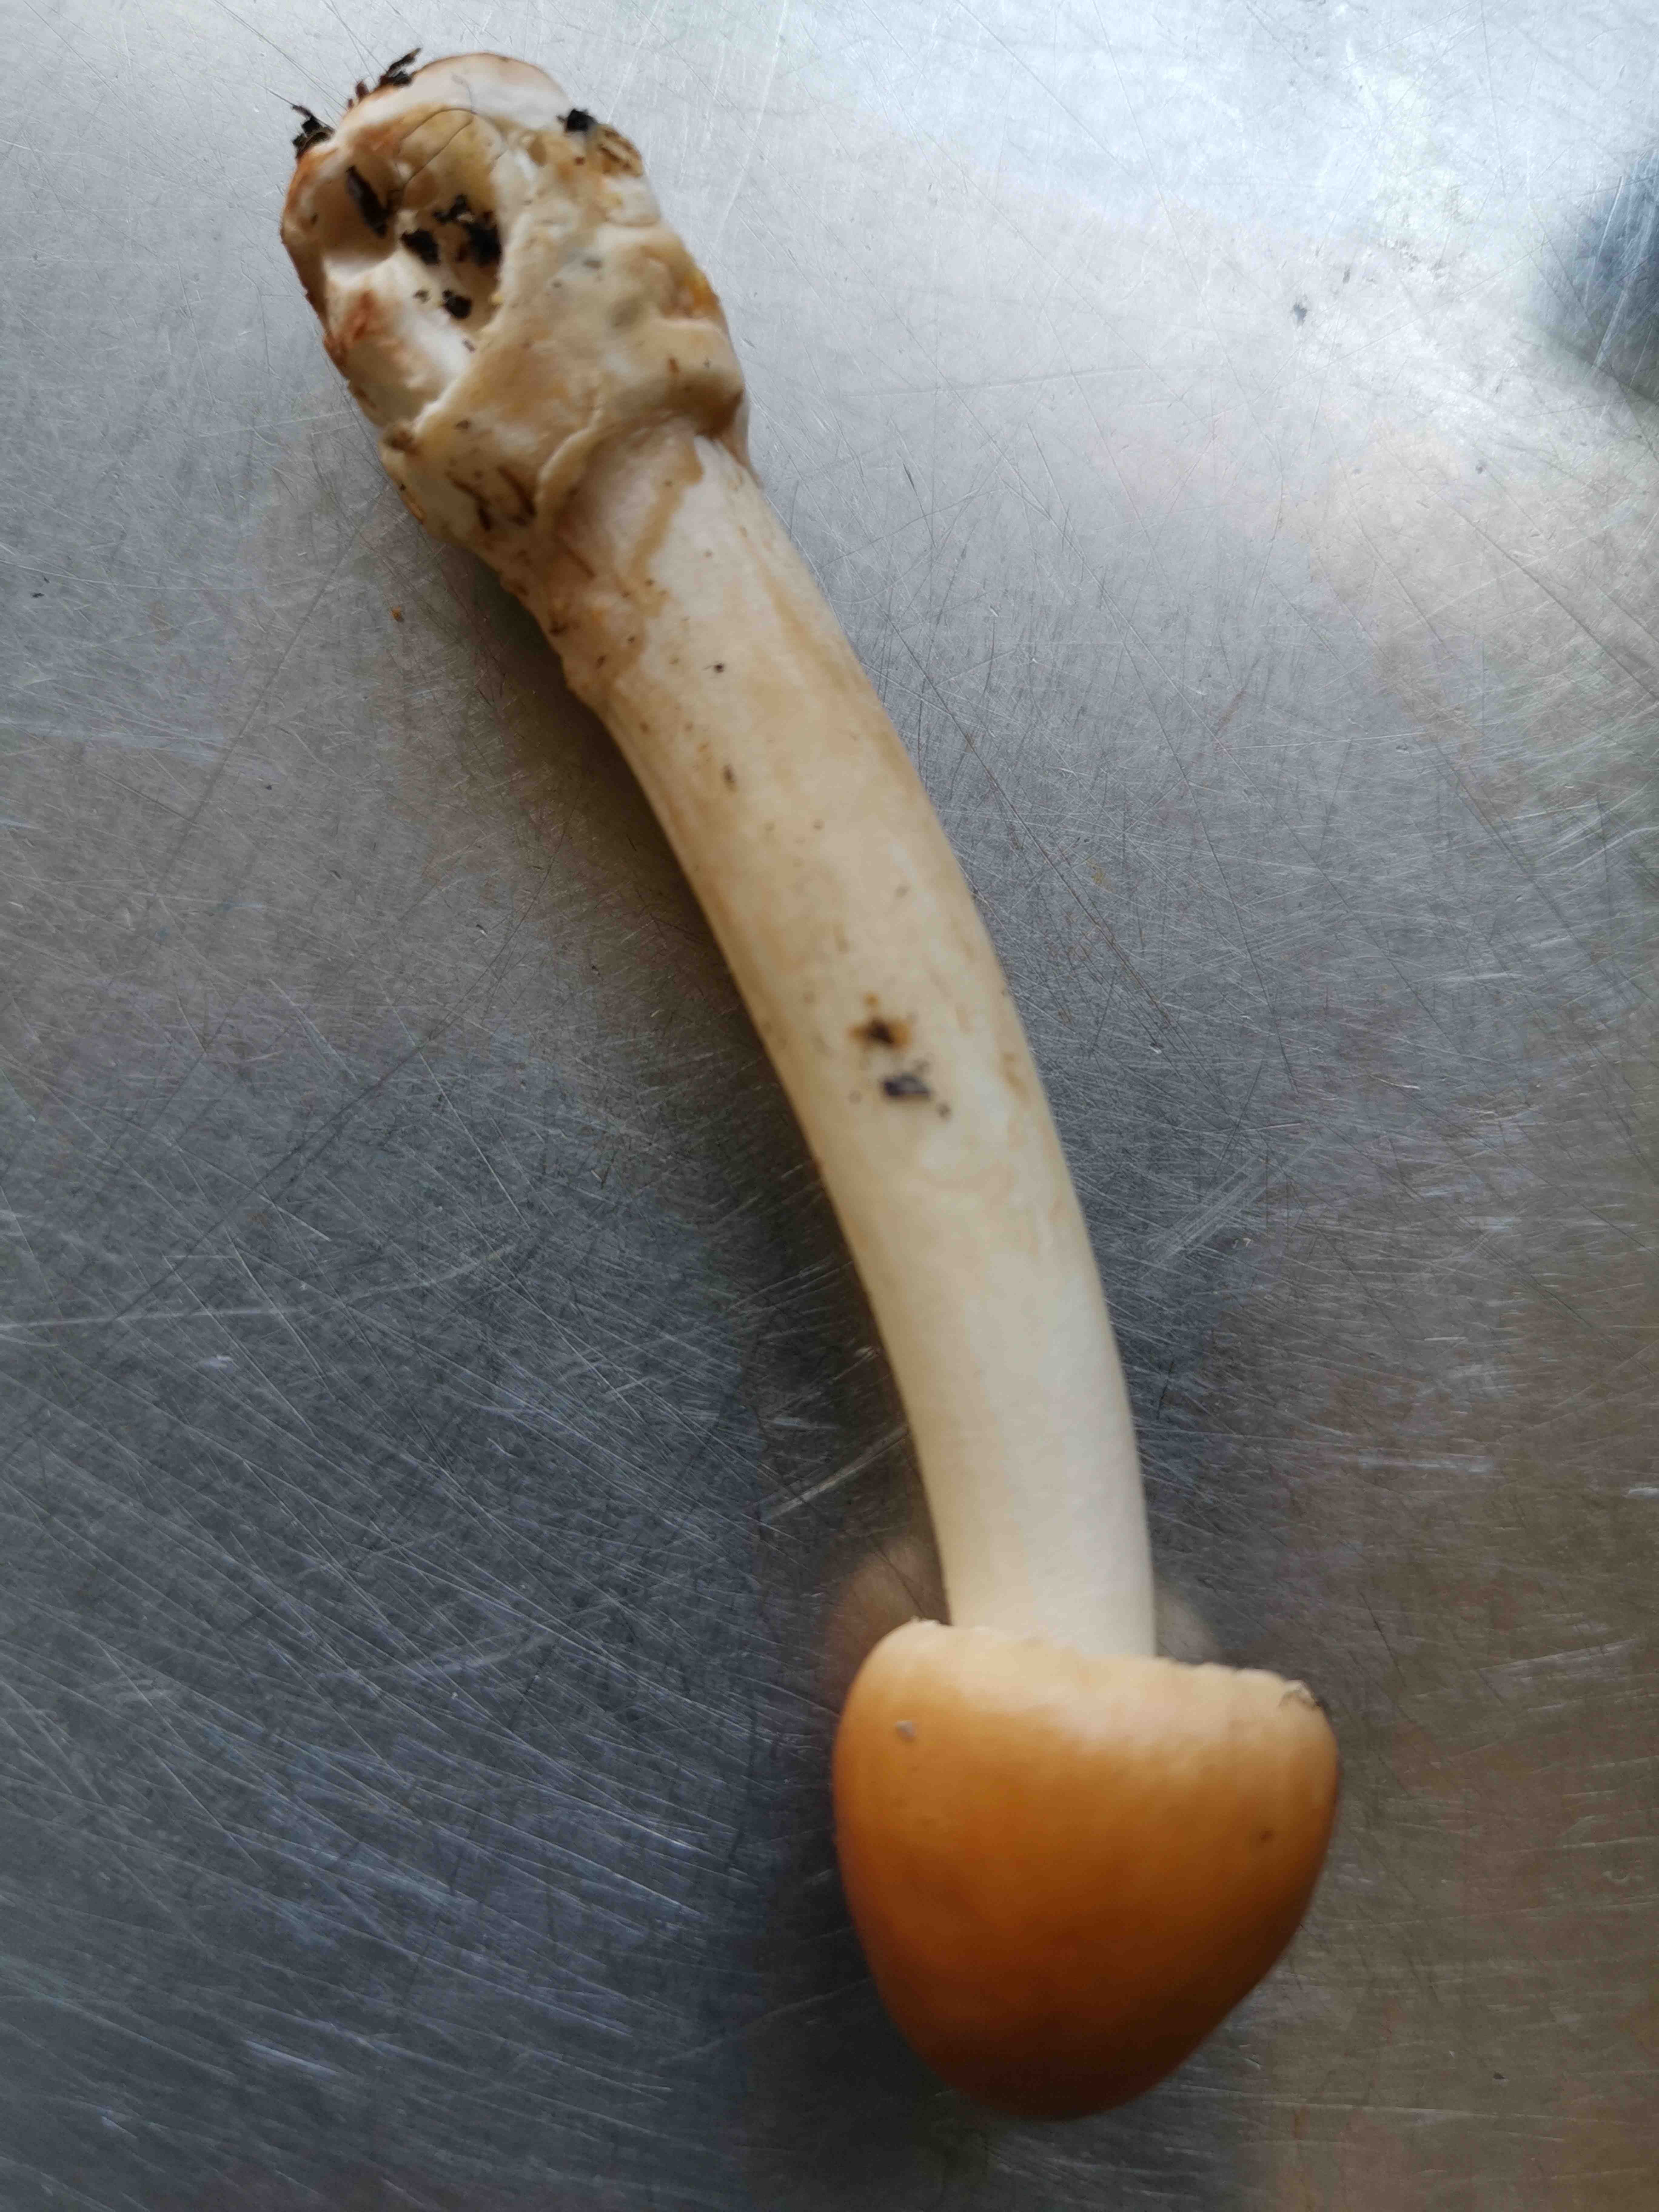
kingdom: Fungi
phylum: Basidiomycota
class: Agaricomycetes
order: Agaricales
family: Amanitaceae
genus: Amanita
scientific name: Amanita fulva
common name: brun kam-fluesvamp
